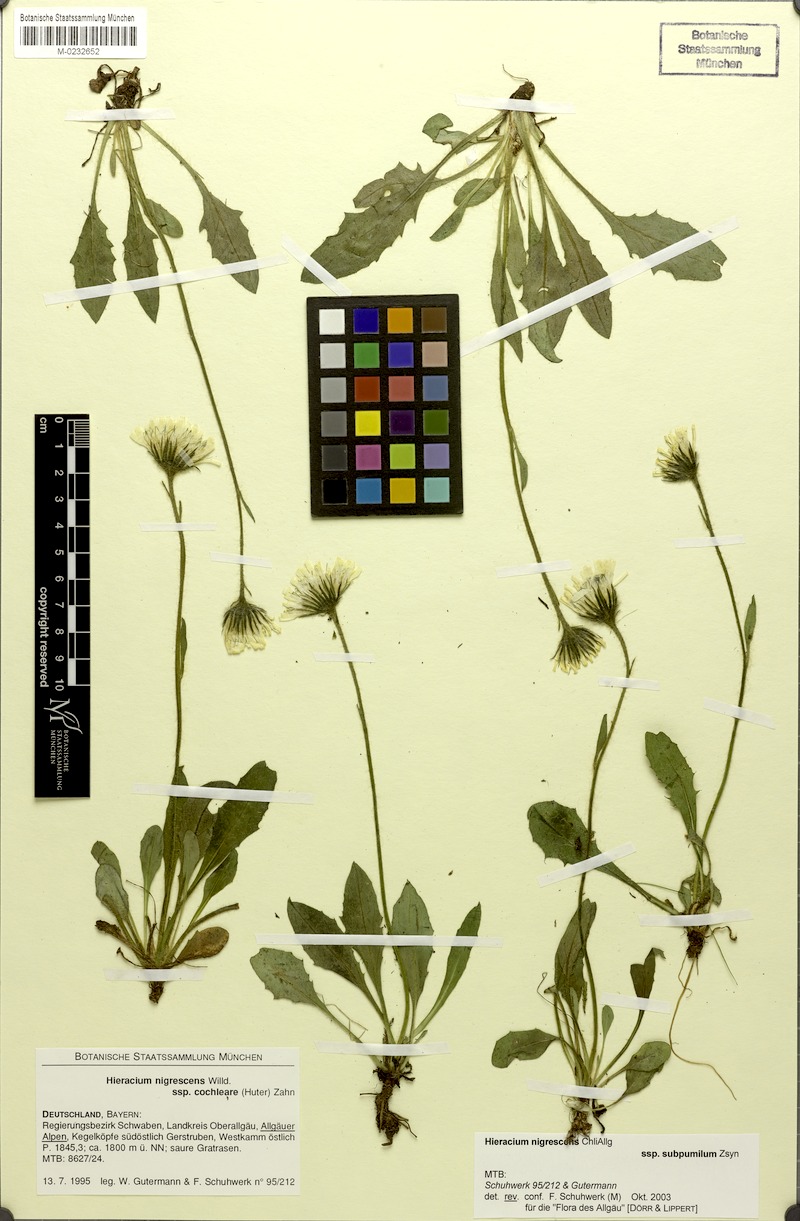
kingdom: Plantae
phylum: Tracheophyta
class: Magnoliopsida
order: Asterales
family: Asteraceae
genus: Hieracium
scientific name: Hieracium nigrescens
